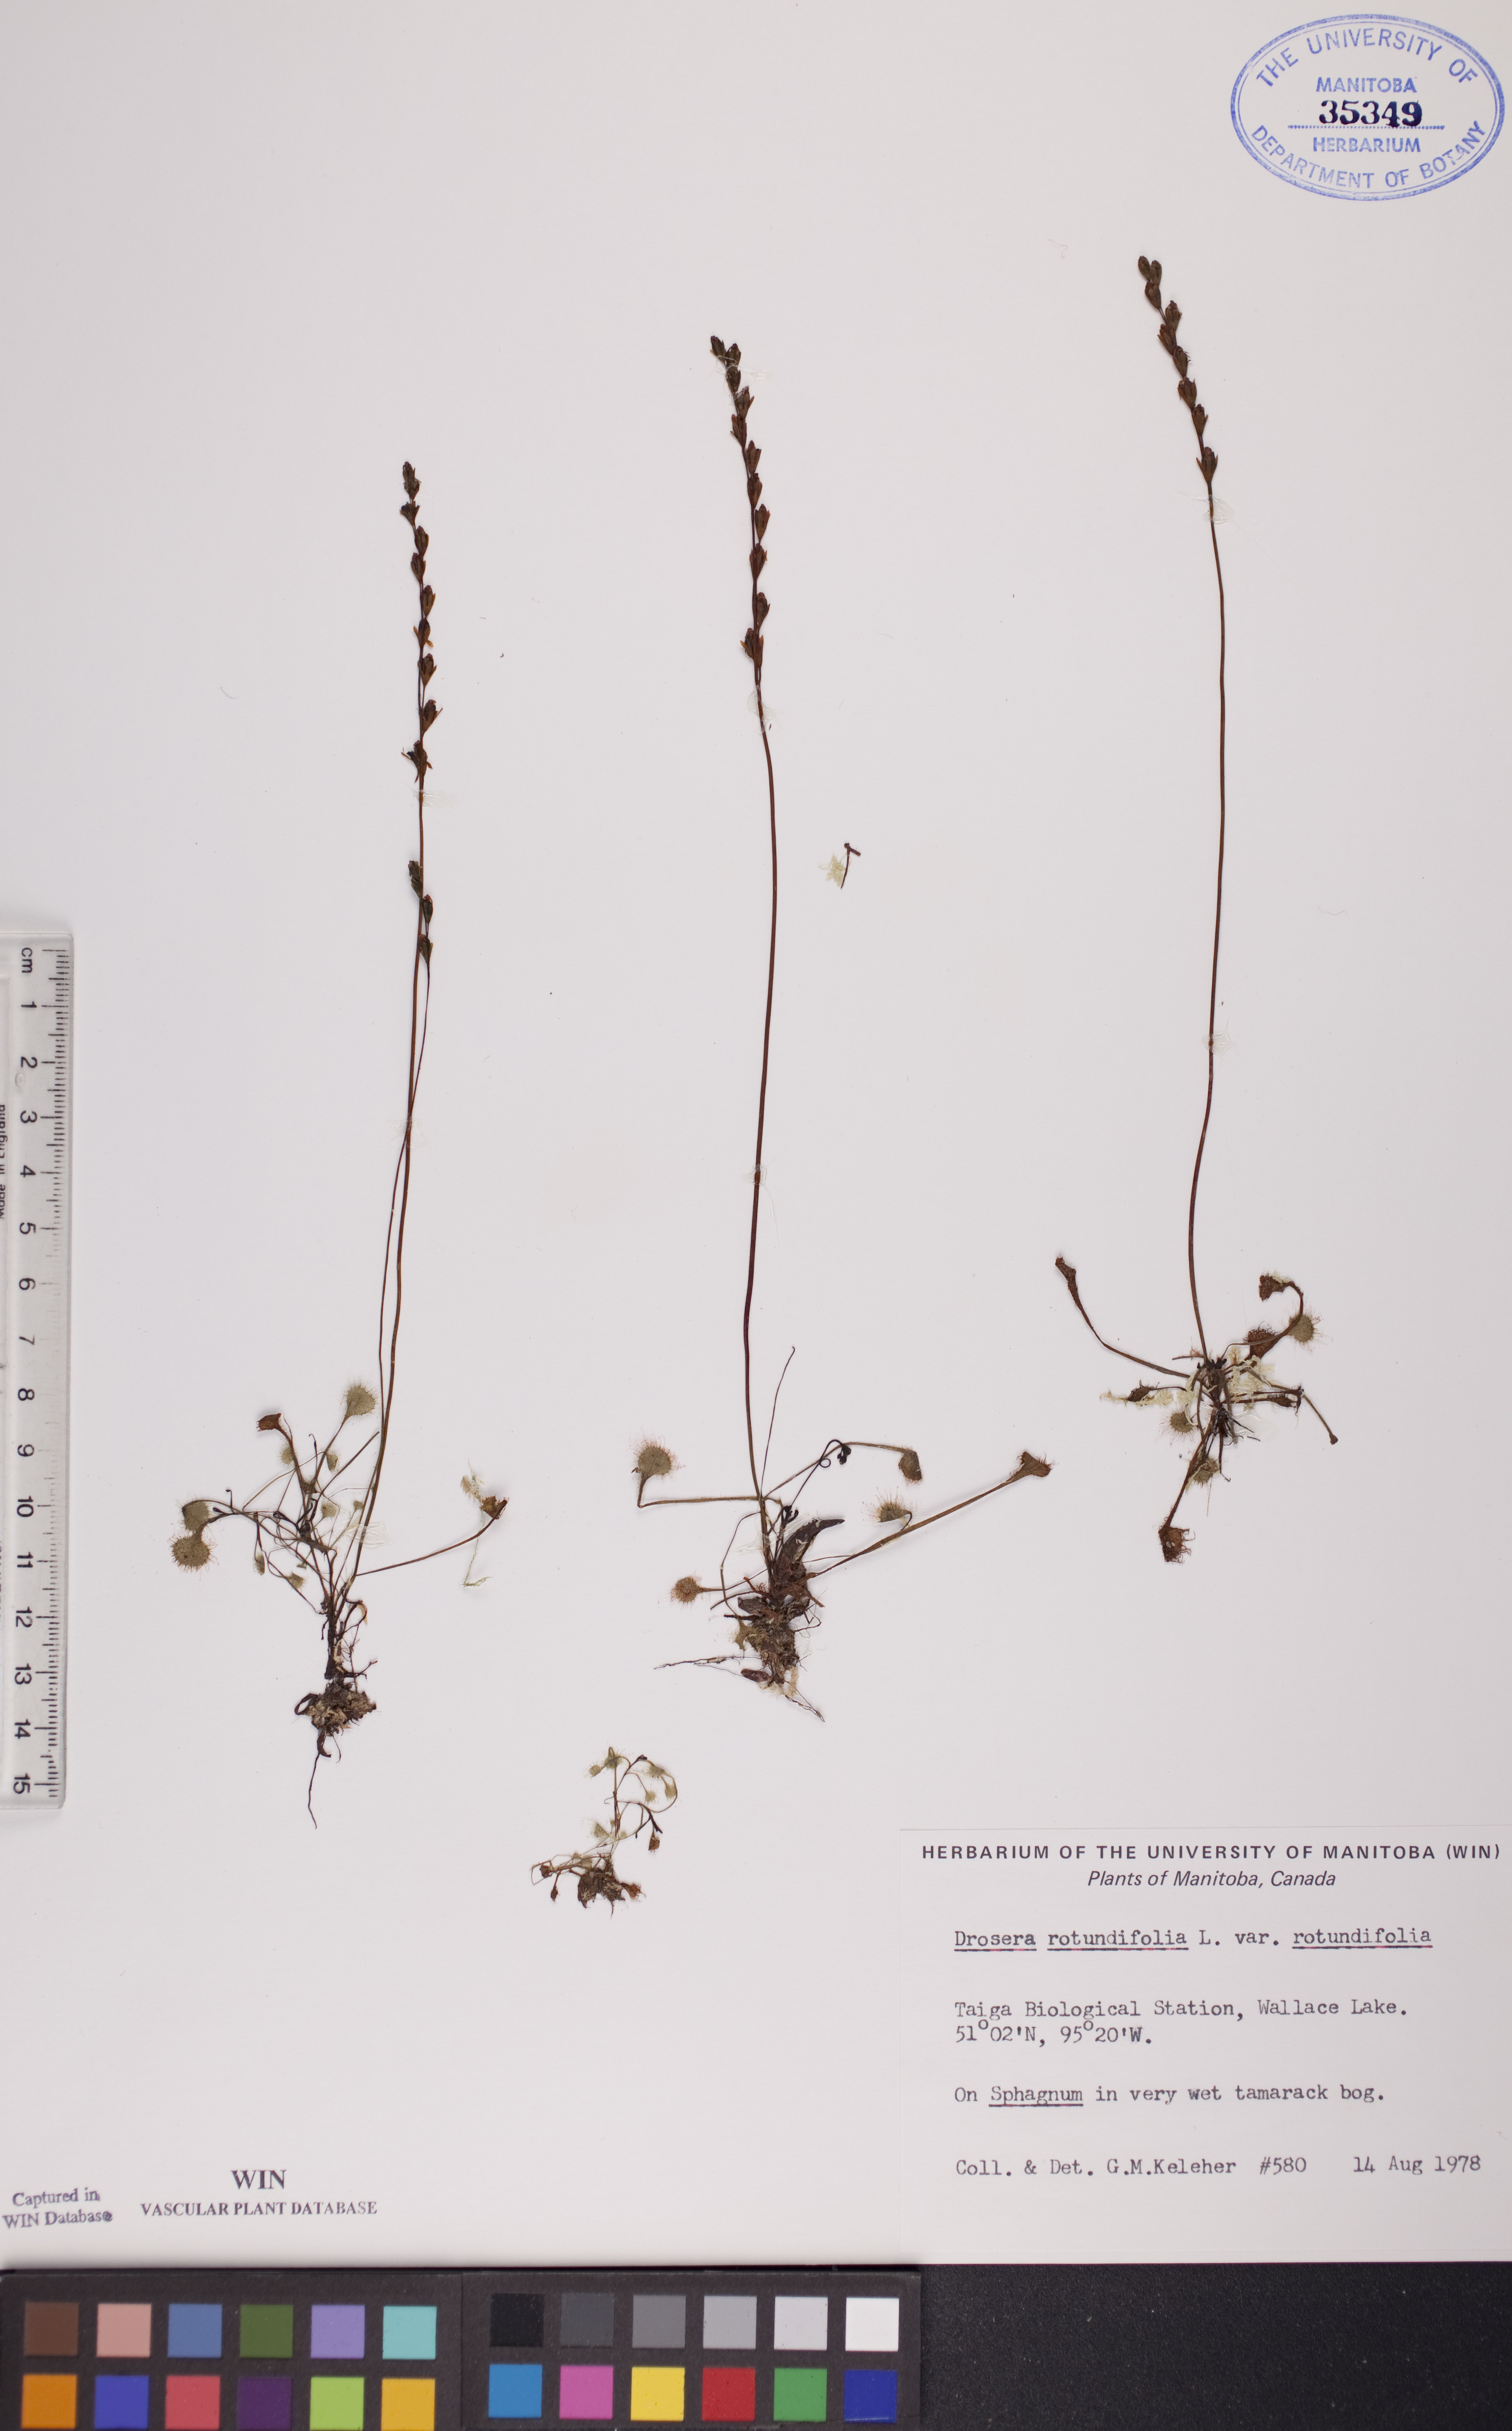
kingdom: Plantae
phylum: Tracheophyta
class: Magnoliopsida
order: Caryophyllales
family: Droseraceae
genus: Drosera
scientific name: Drosera rotundifolia
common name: Round-leaved sundew
